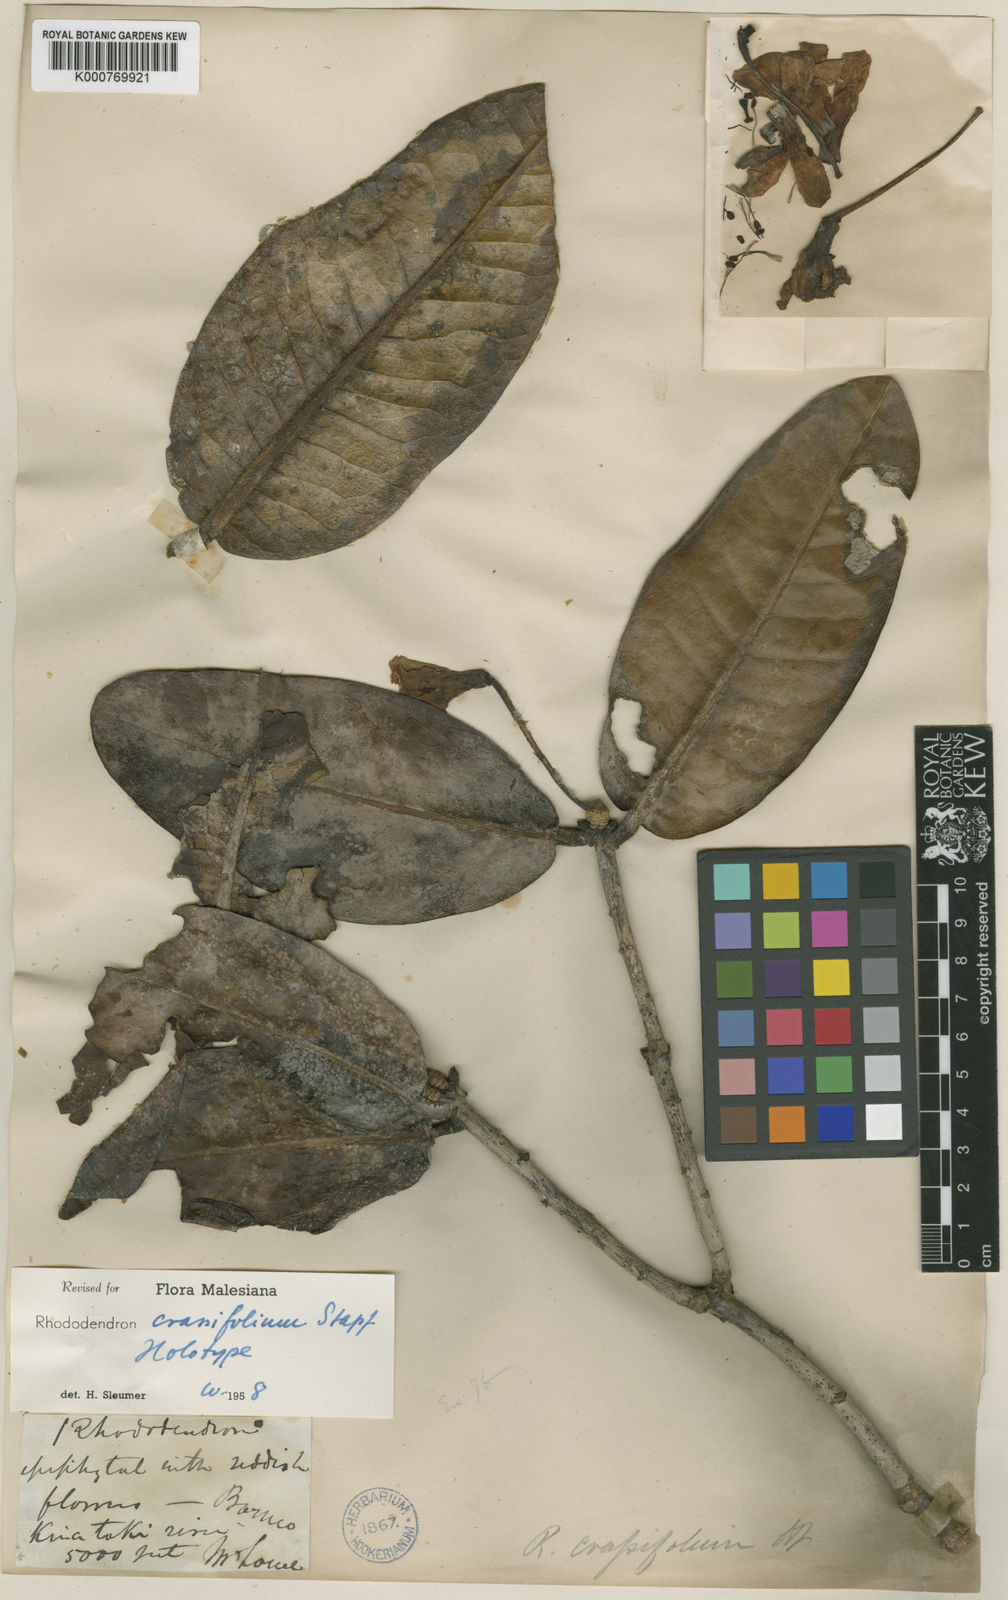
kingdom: Plantae
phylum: Tracheophyta
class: Magnoliopsida
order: Ericales
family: Ericaceae
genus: Rhododendron
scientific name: Rhododendron crassifolium
